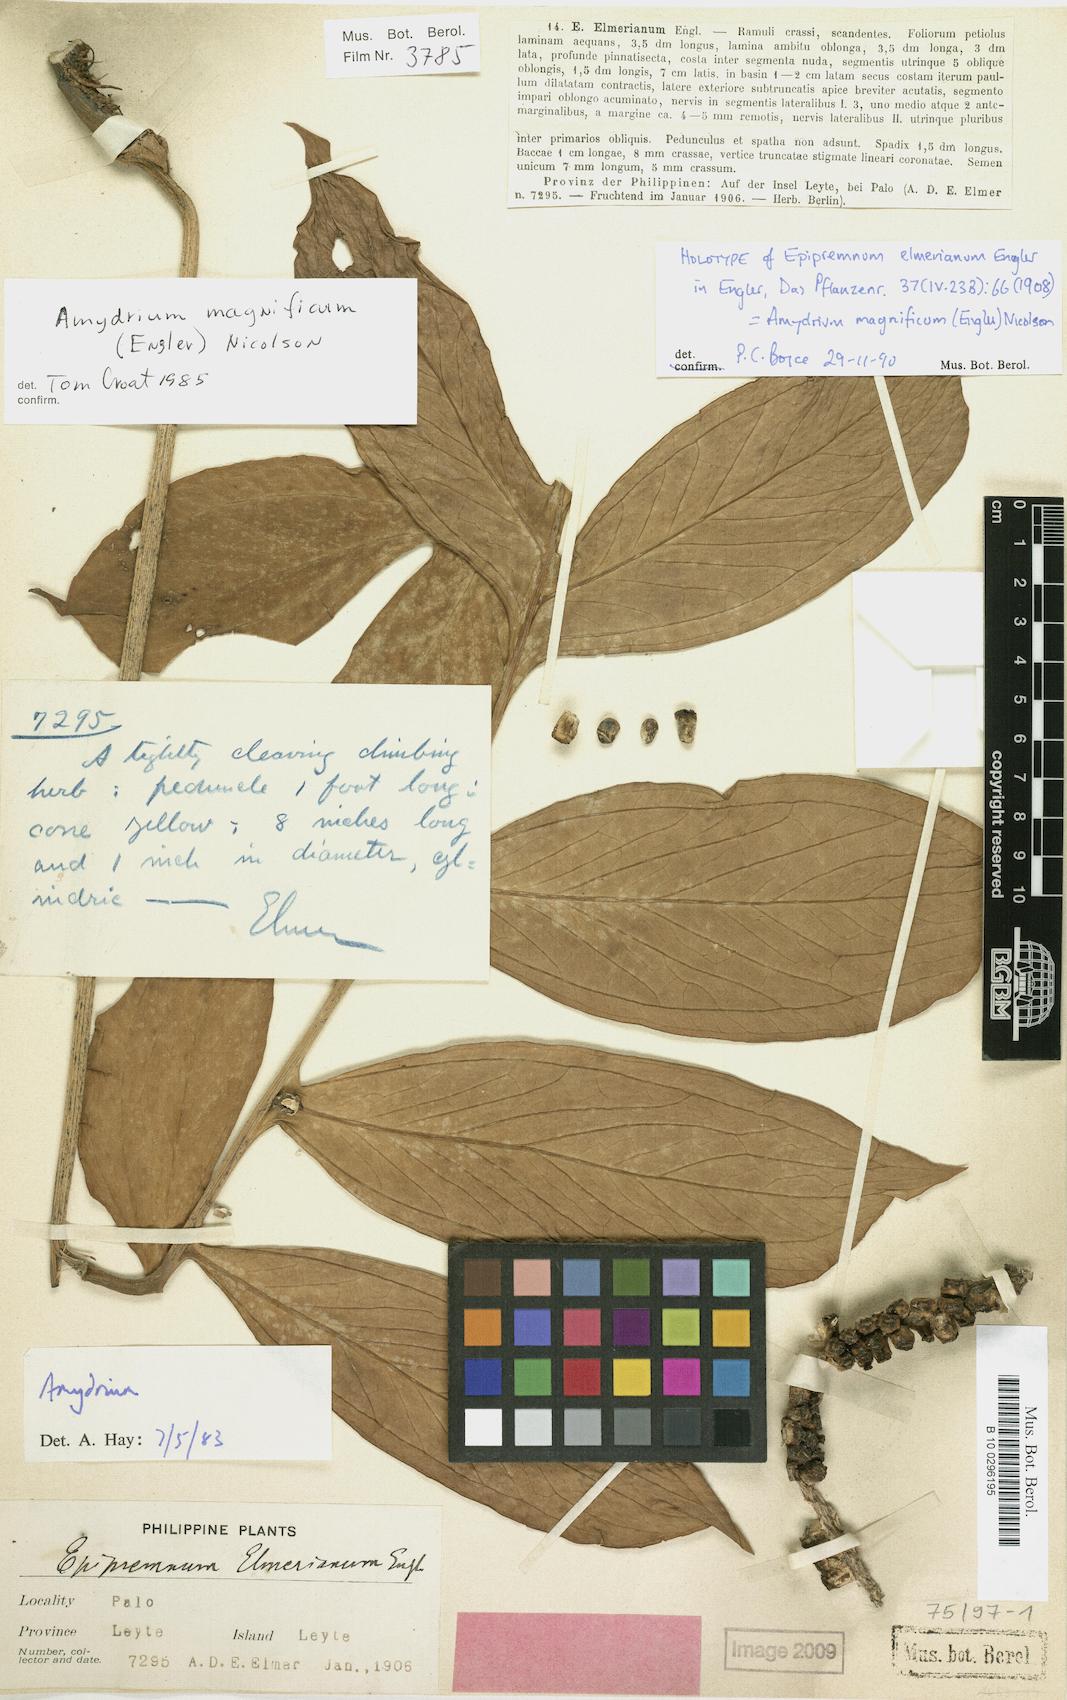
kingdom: Plantae
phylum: Tracheophyta
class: Liliopsida
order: Alismatales
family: Araceae
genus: Amydrium
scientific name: Amydrium zippelianum
